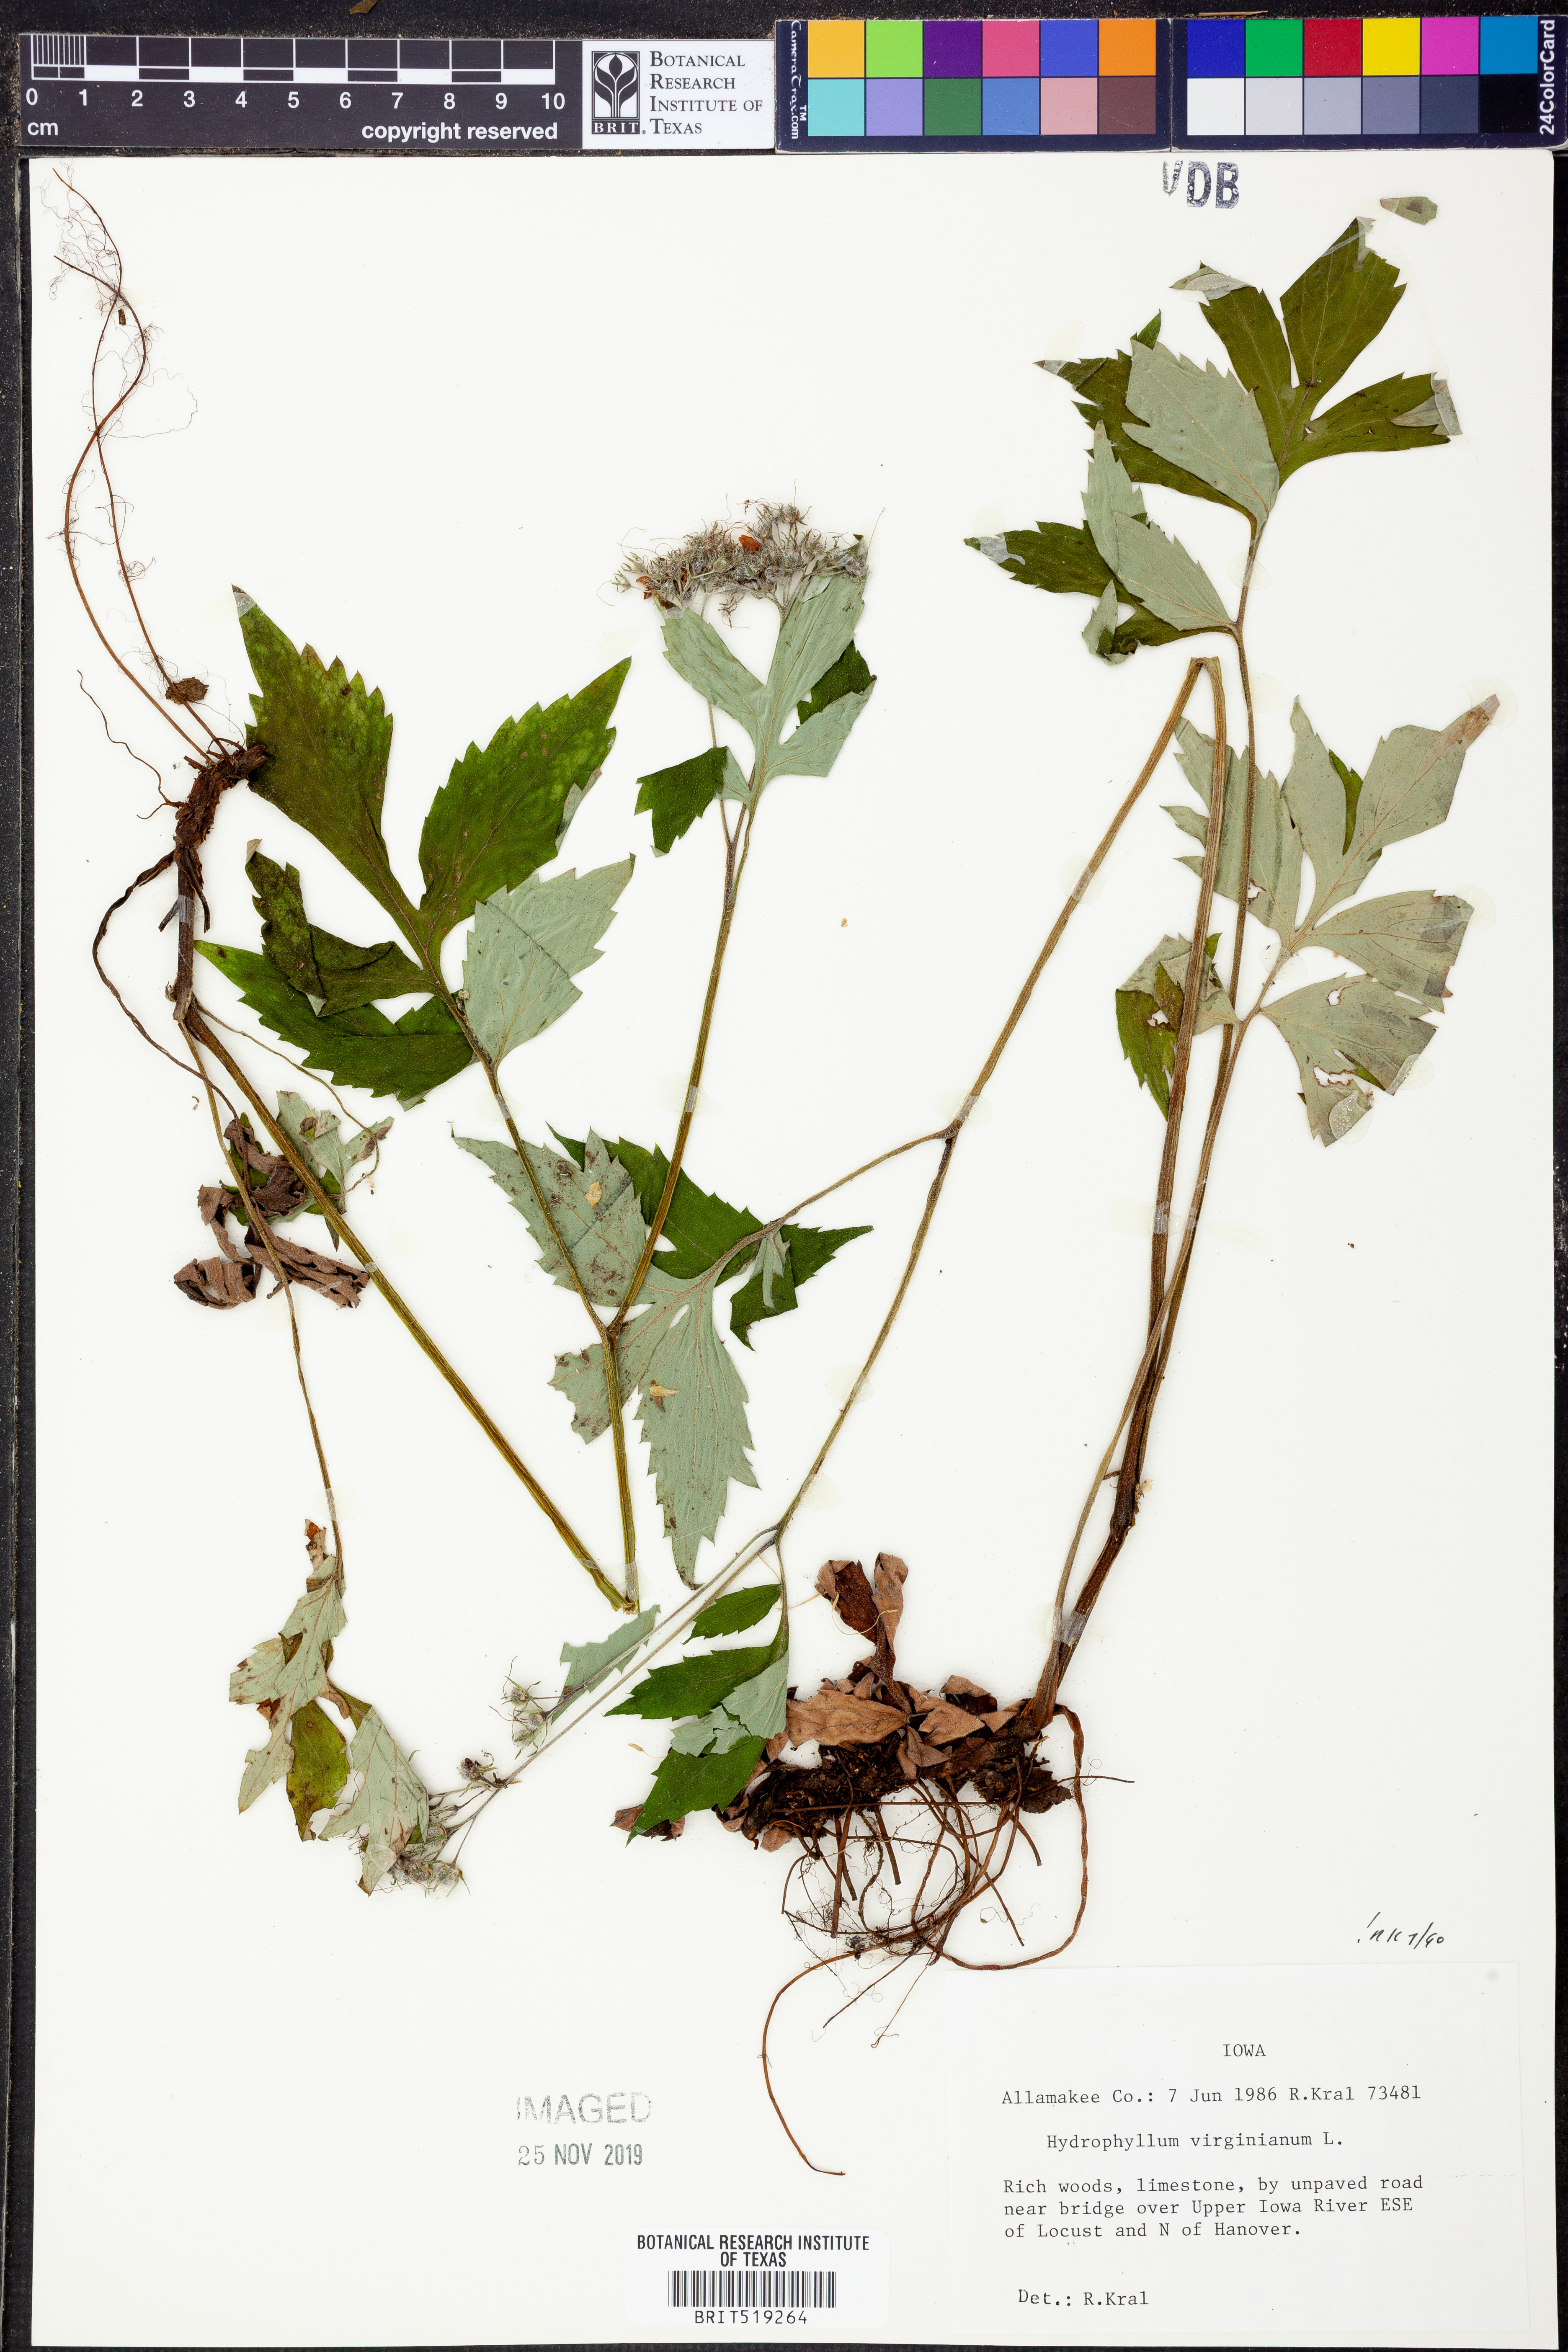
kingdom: Plantae
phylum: Tracheophyta
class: Magnoliopsida
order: Boraginales
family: Hydrophyllaceae
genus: Hydrophyllum
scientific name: Hydrophyllum virginianum
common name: Virginia waterleaf
